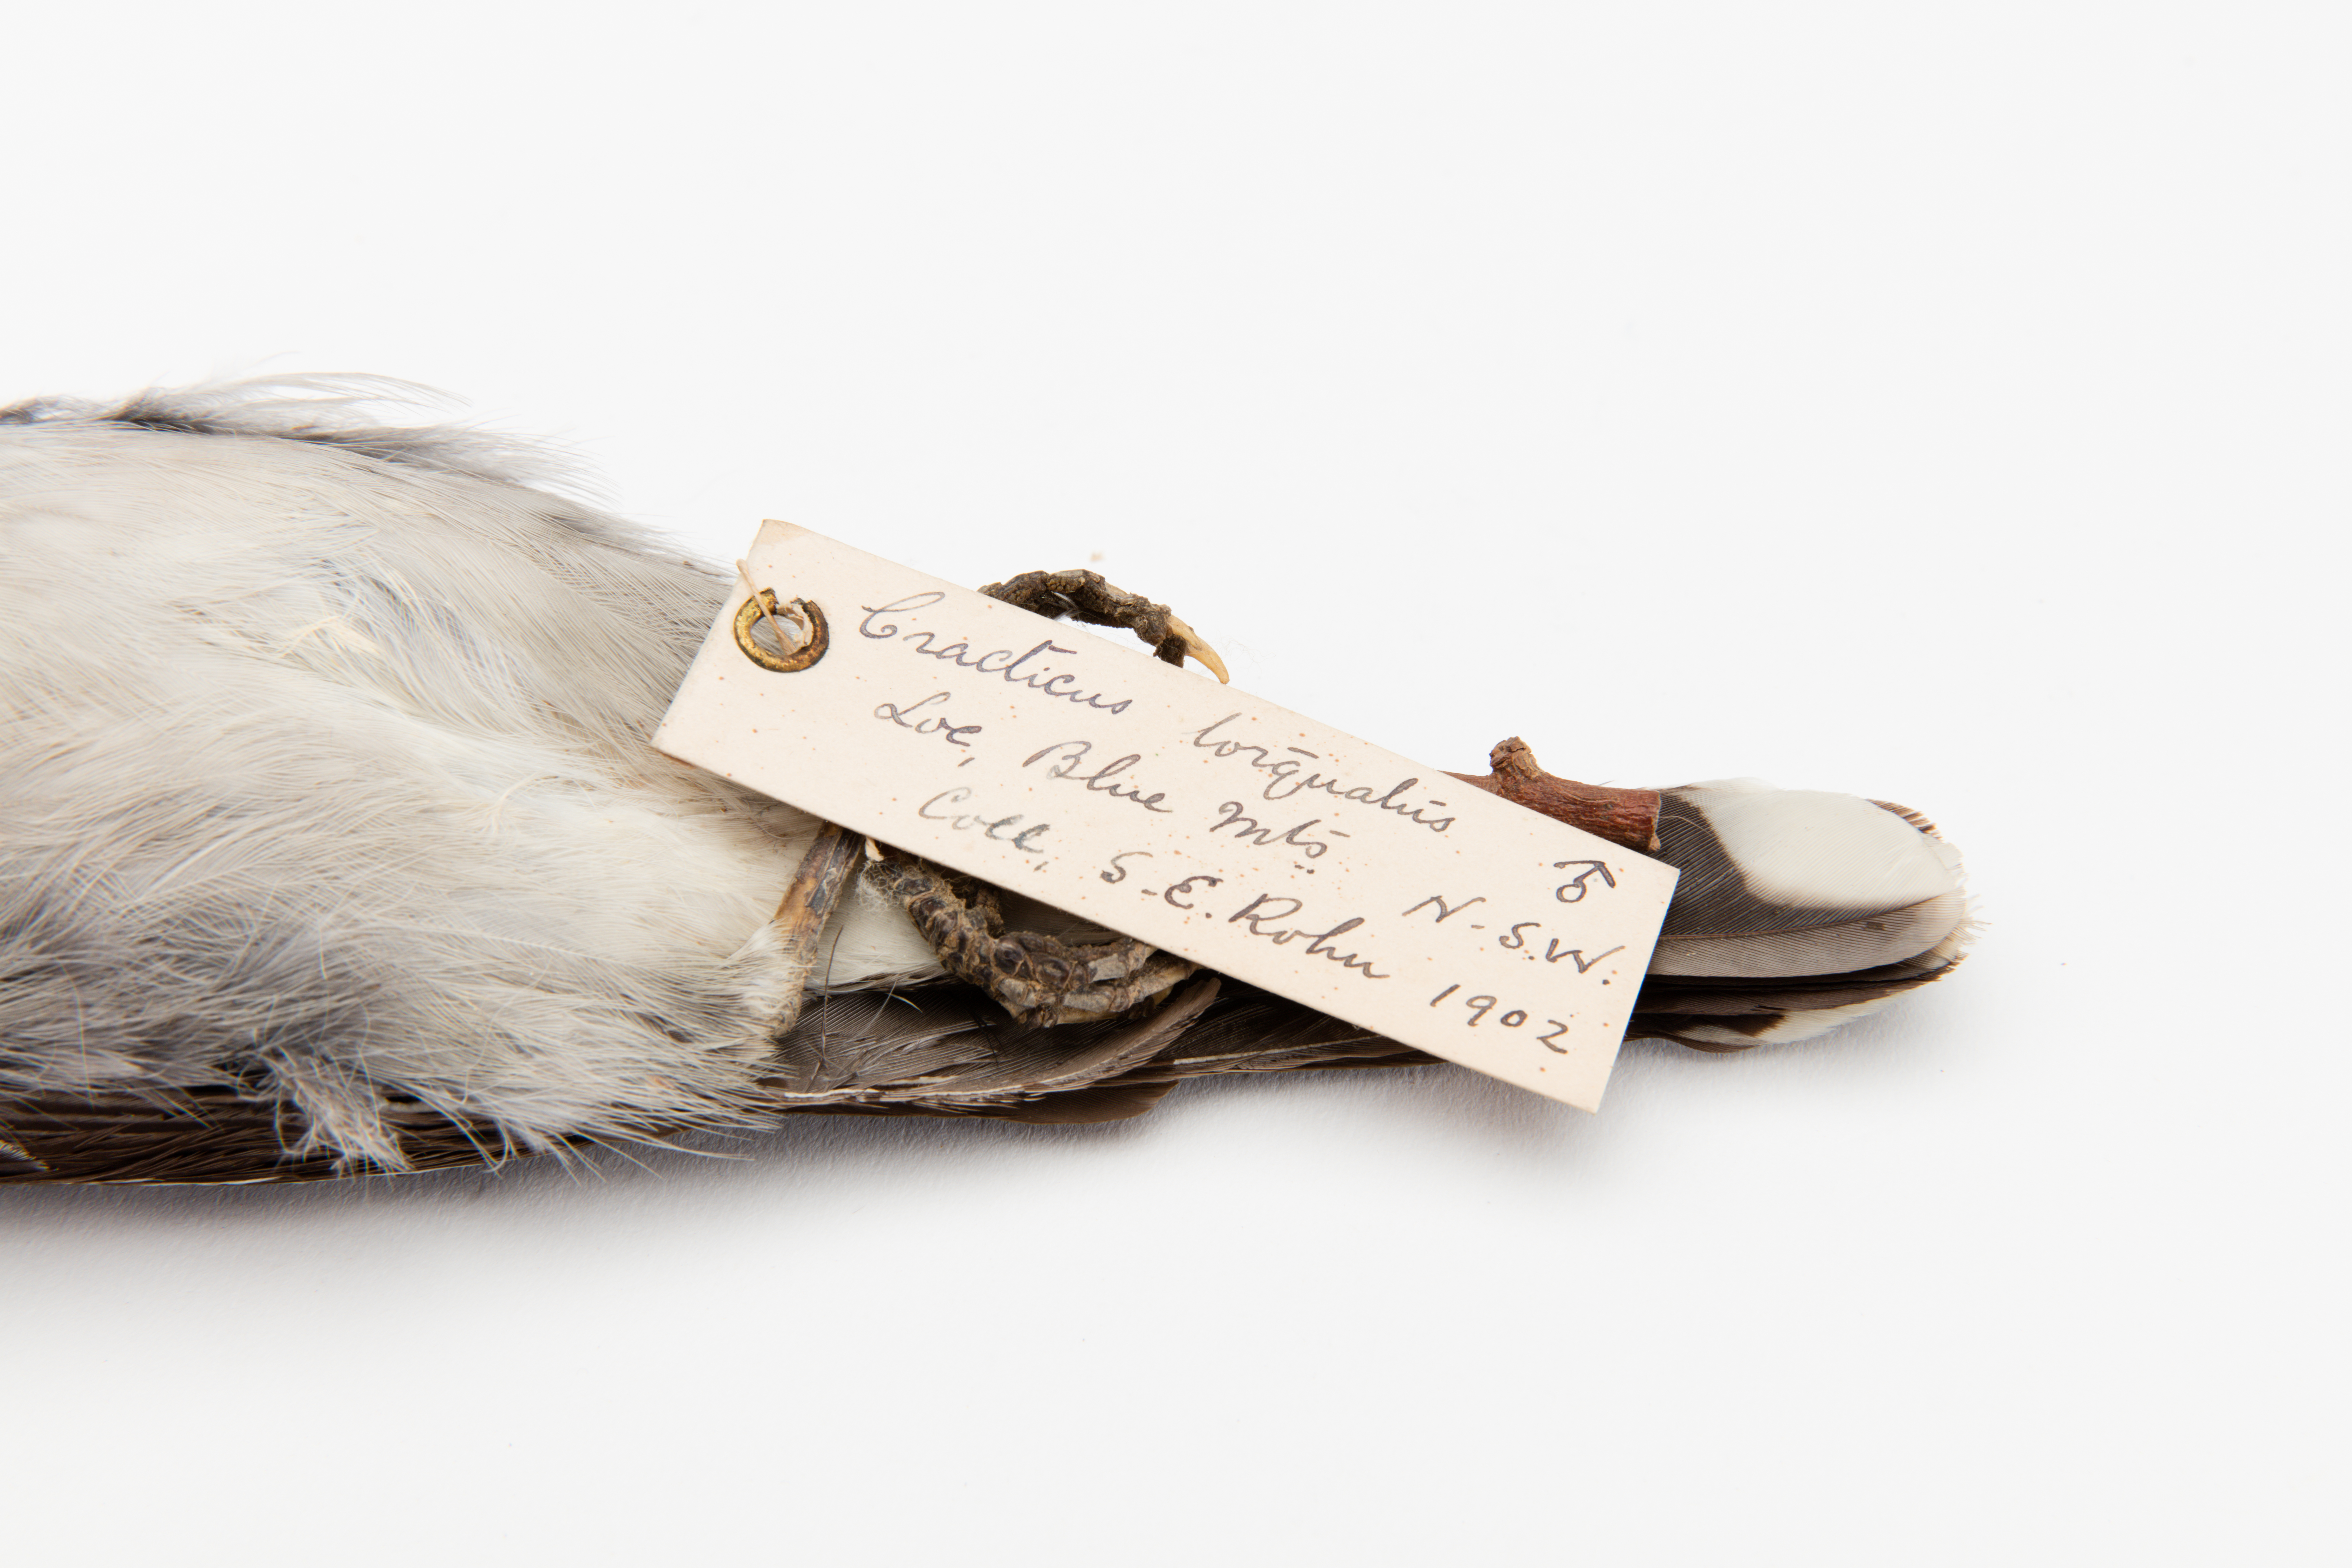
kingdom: Animalia
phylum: Chordata
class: Aves
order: Passeriformes
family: Cracticidae
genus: Cracticus
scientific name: Cracticus torquatus
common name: Grey butcherbird
